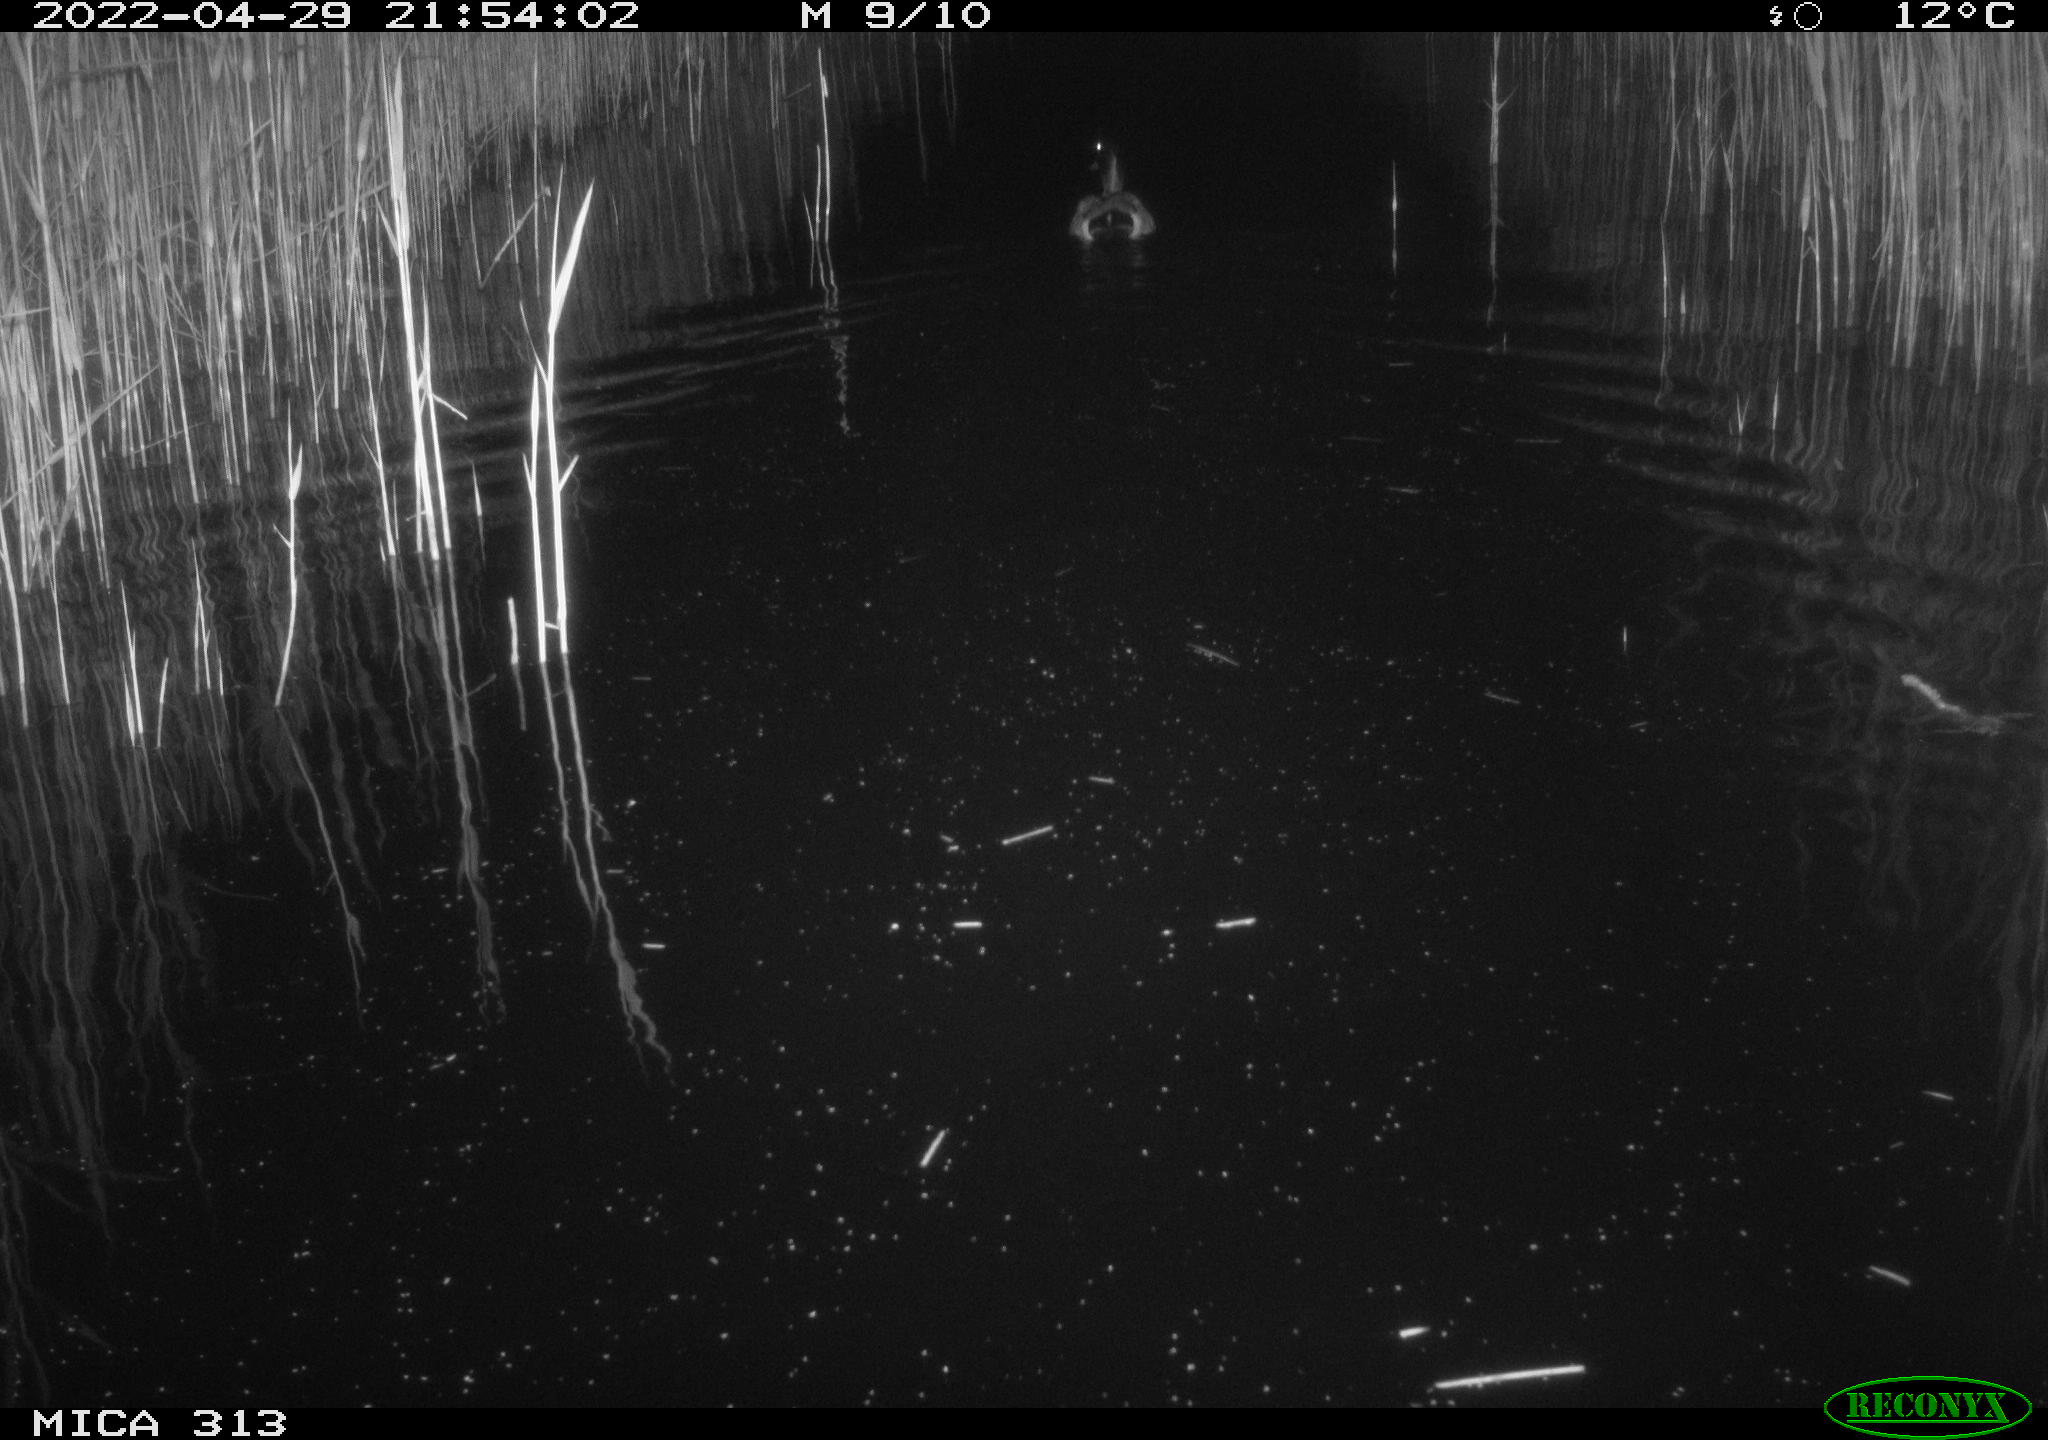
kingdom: Animalia
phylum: Chordata
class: Aves
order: Anseriformes
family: Anatidae
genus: Anas
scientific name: Anas platyrhynchos
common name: Mallard
